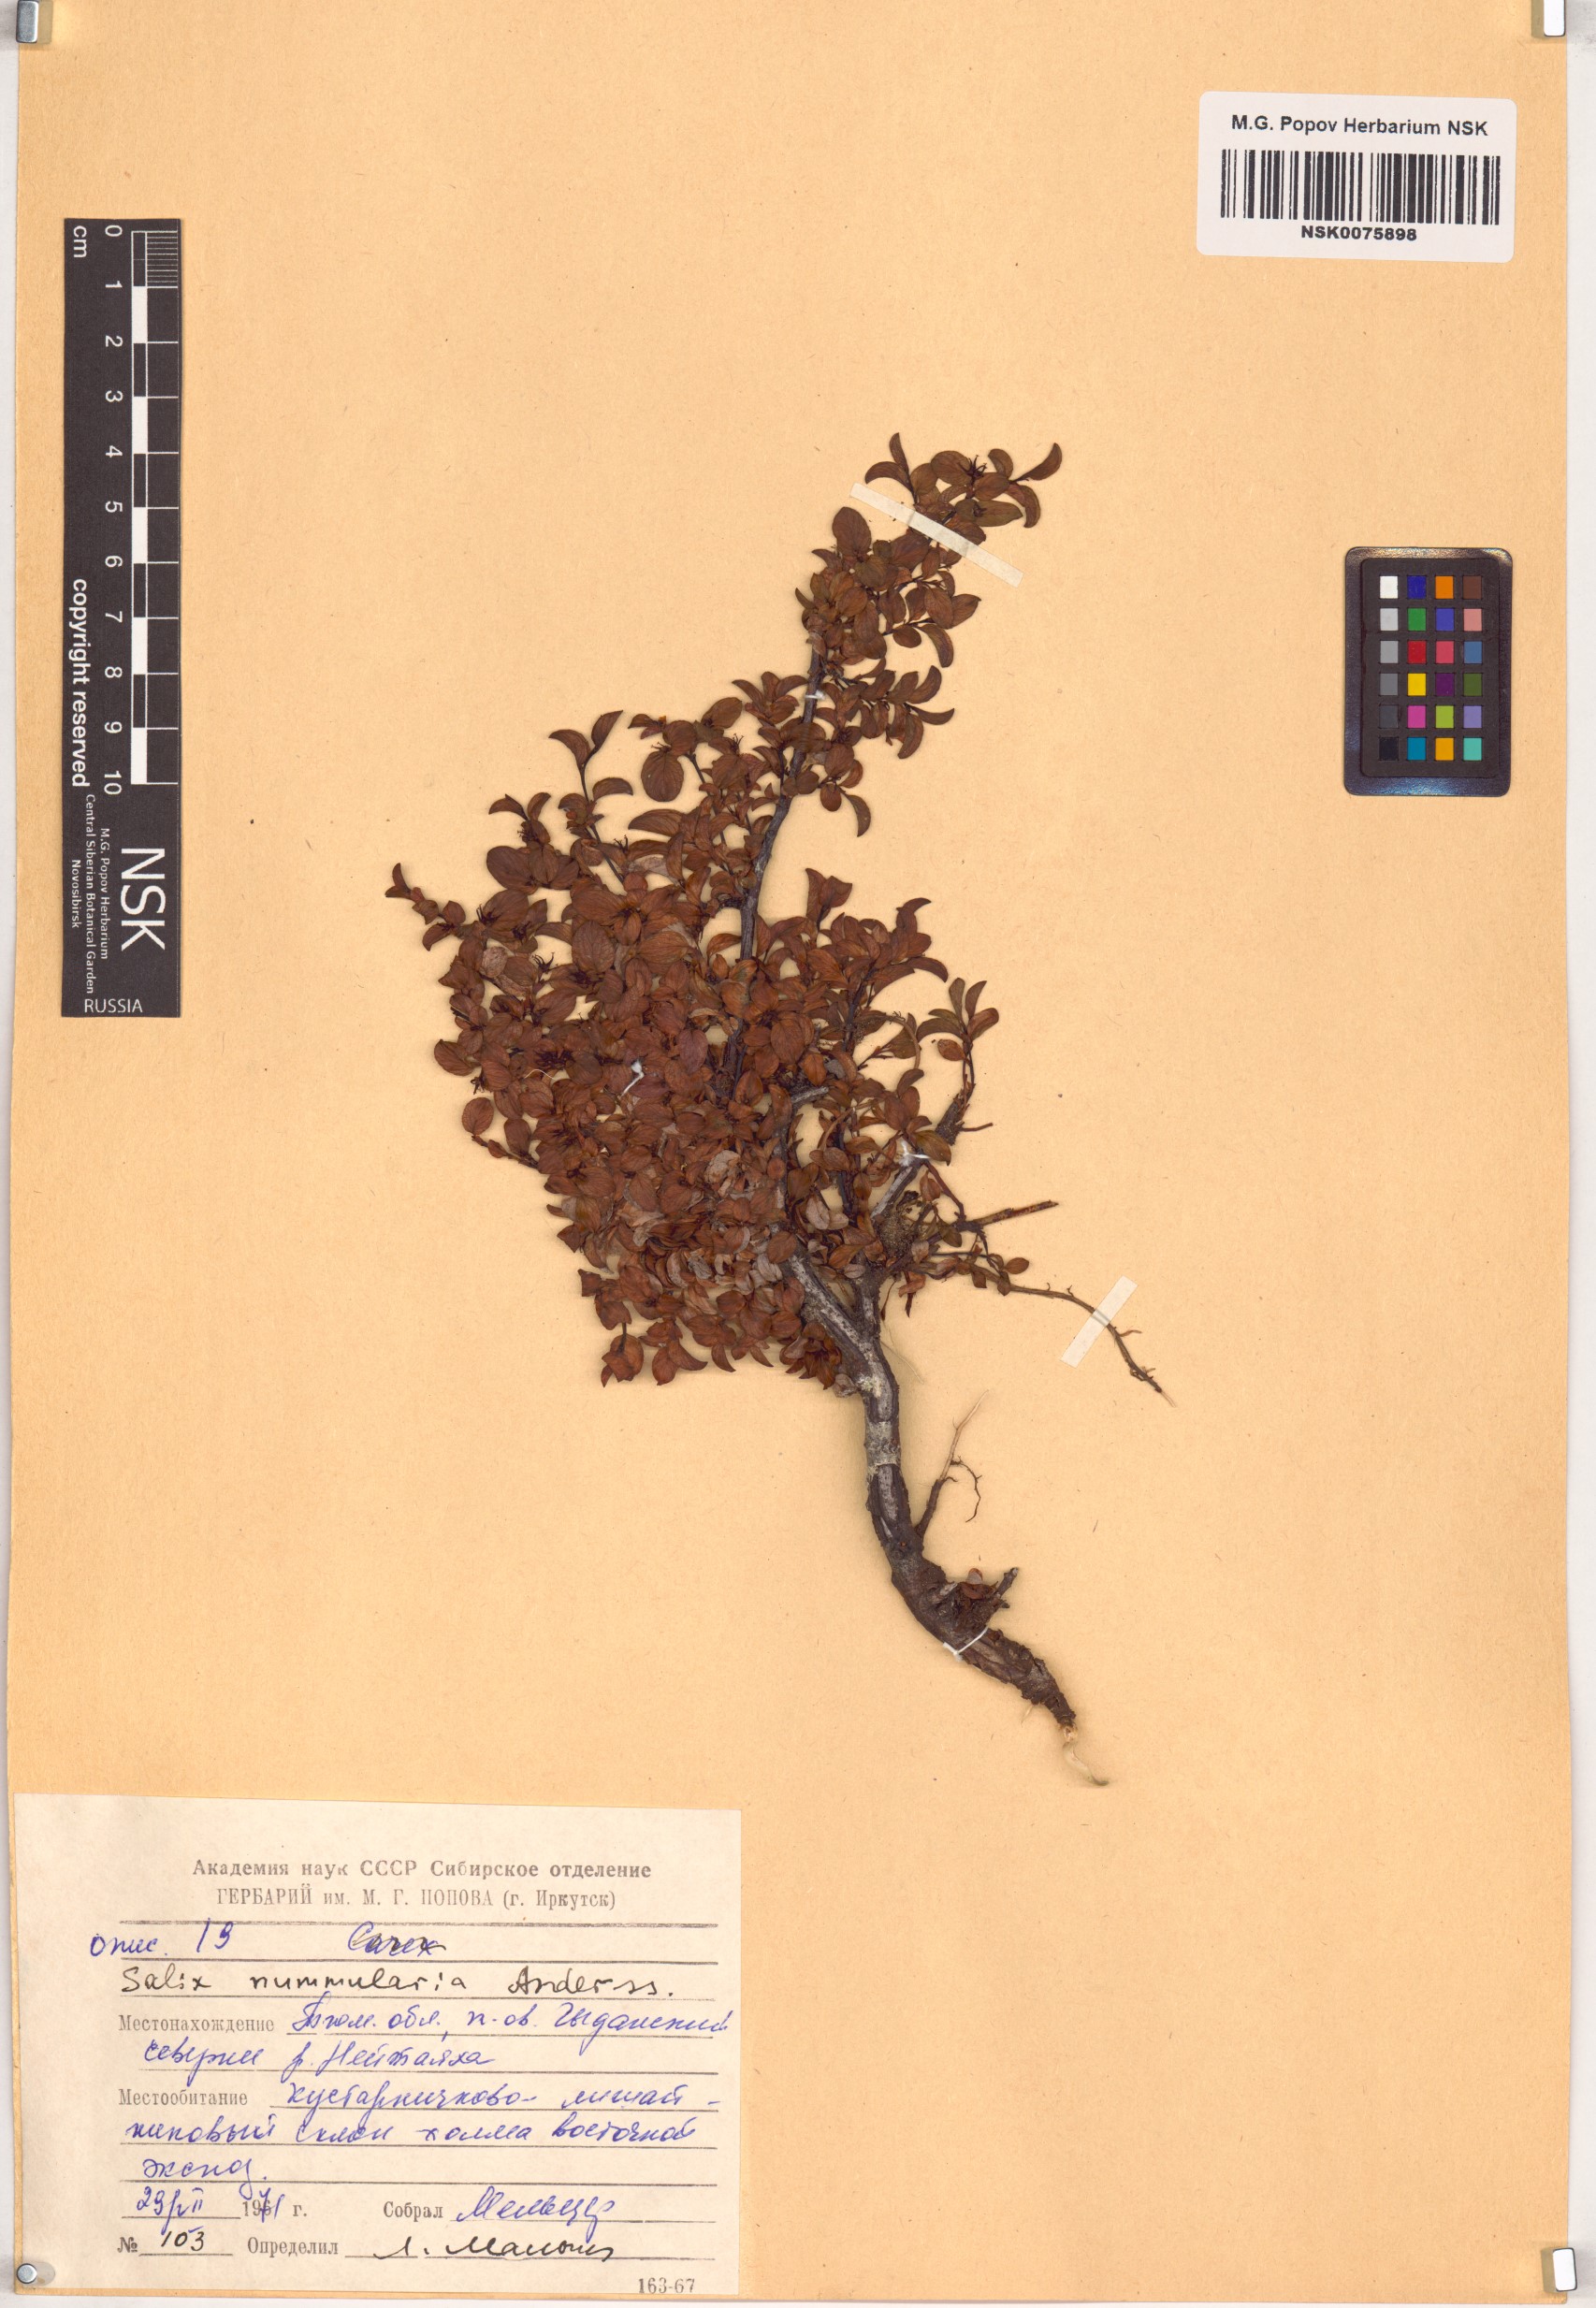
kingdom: Plantae
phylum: Tracheophyta
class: Magnoliopsida
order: Malpighiales
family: Salicaceae
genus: Salix
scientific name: Salix nummularia
